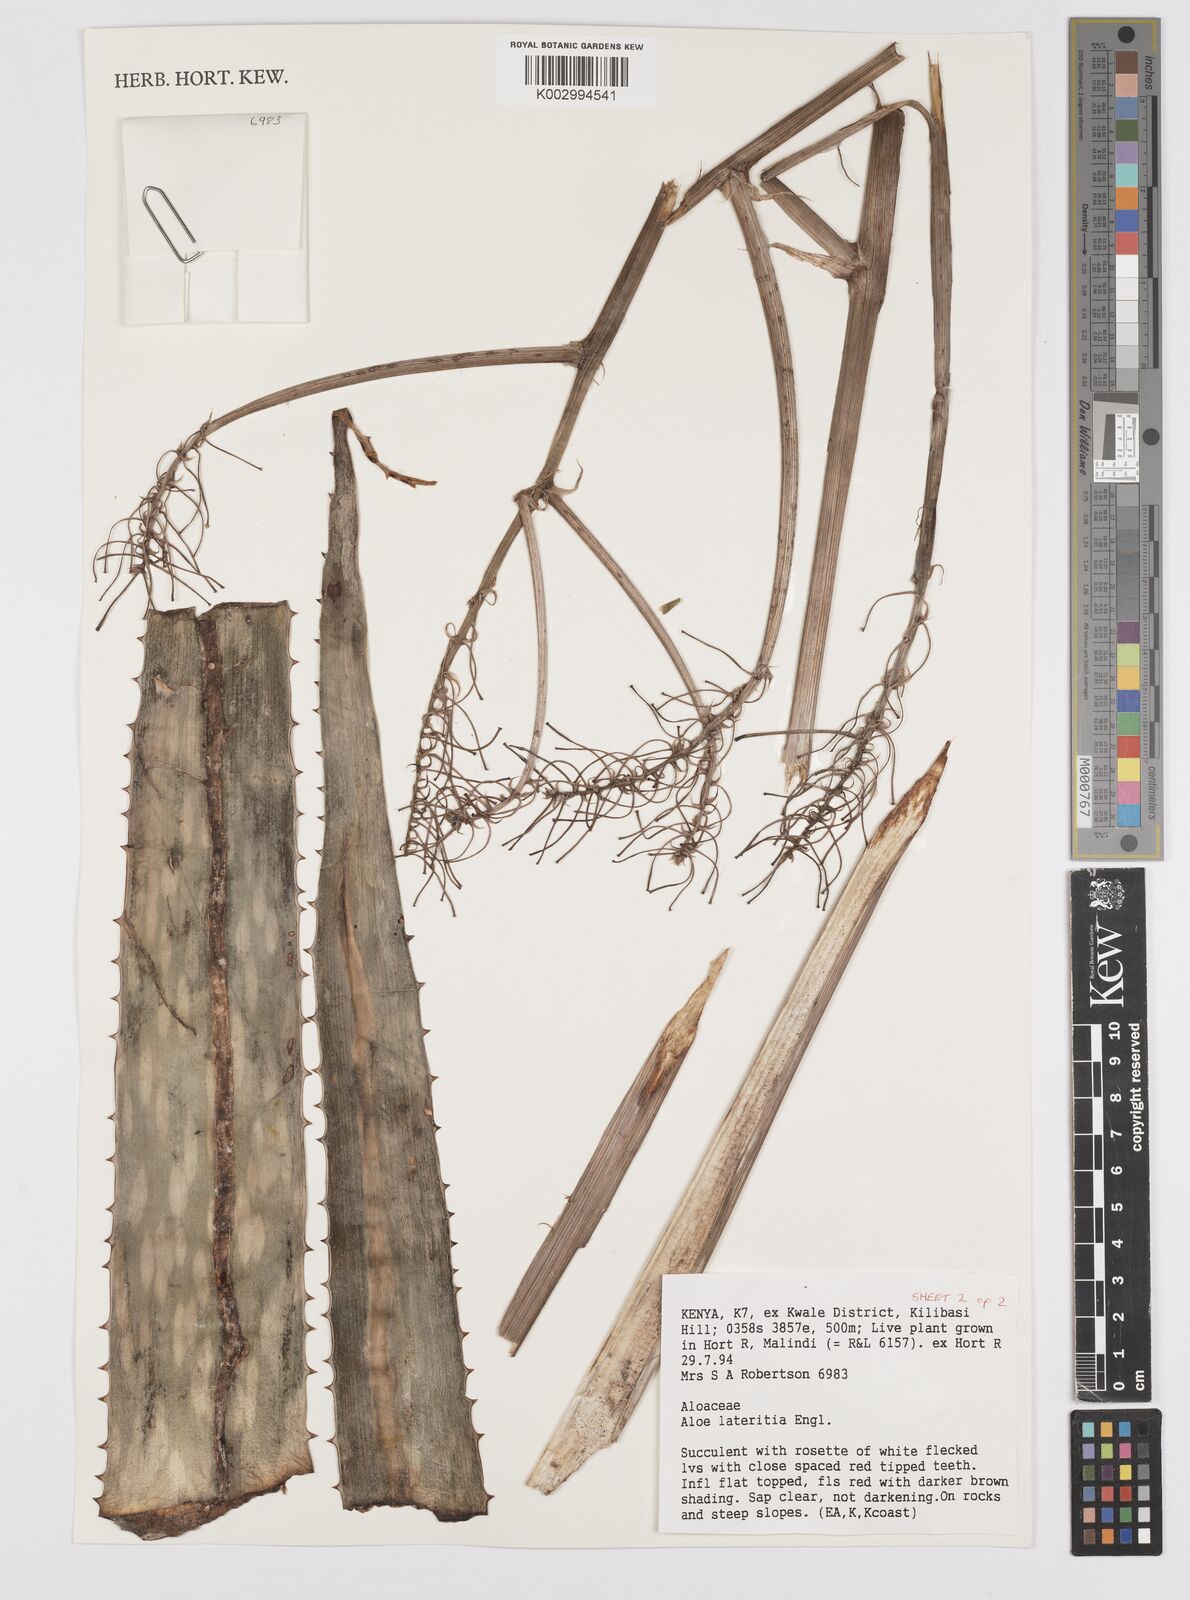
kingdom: Plantae
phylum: Tracheophyta
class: Liliopsida
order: Asparagales
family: Asphodelaceae
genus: Aloe
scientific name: Aloe lateritia
